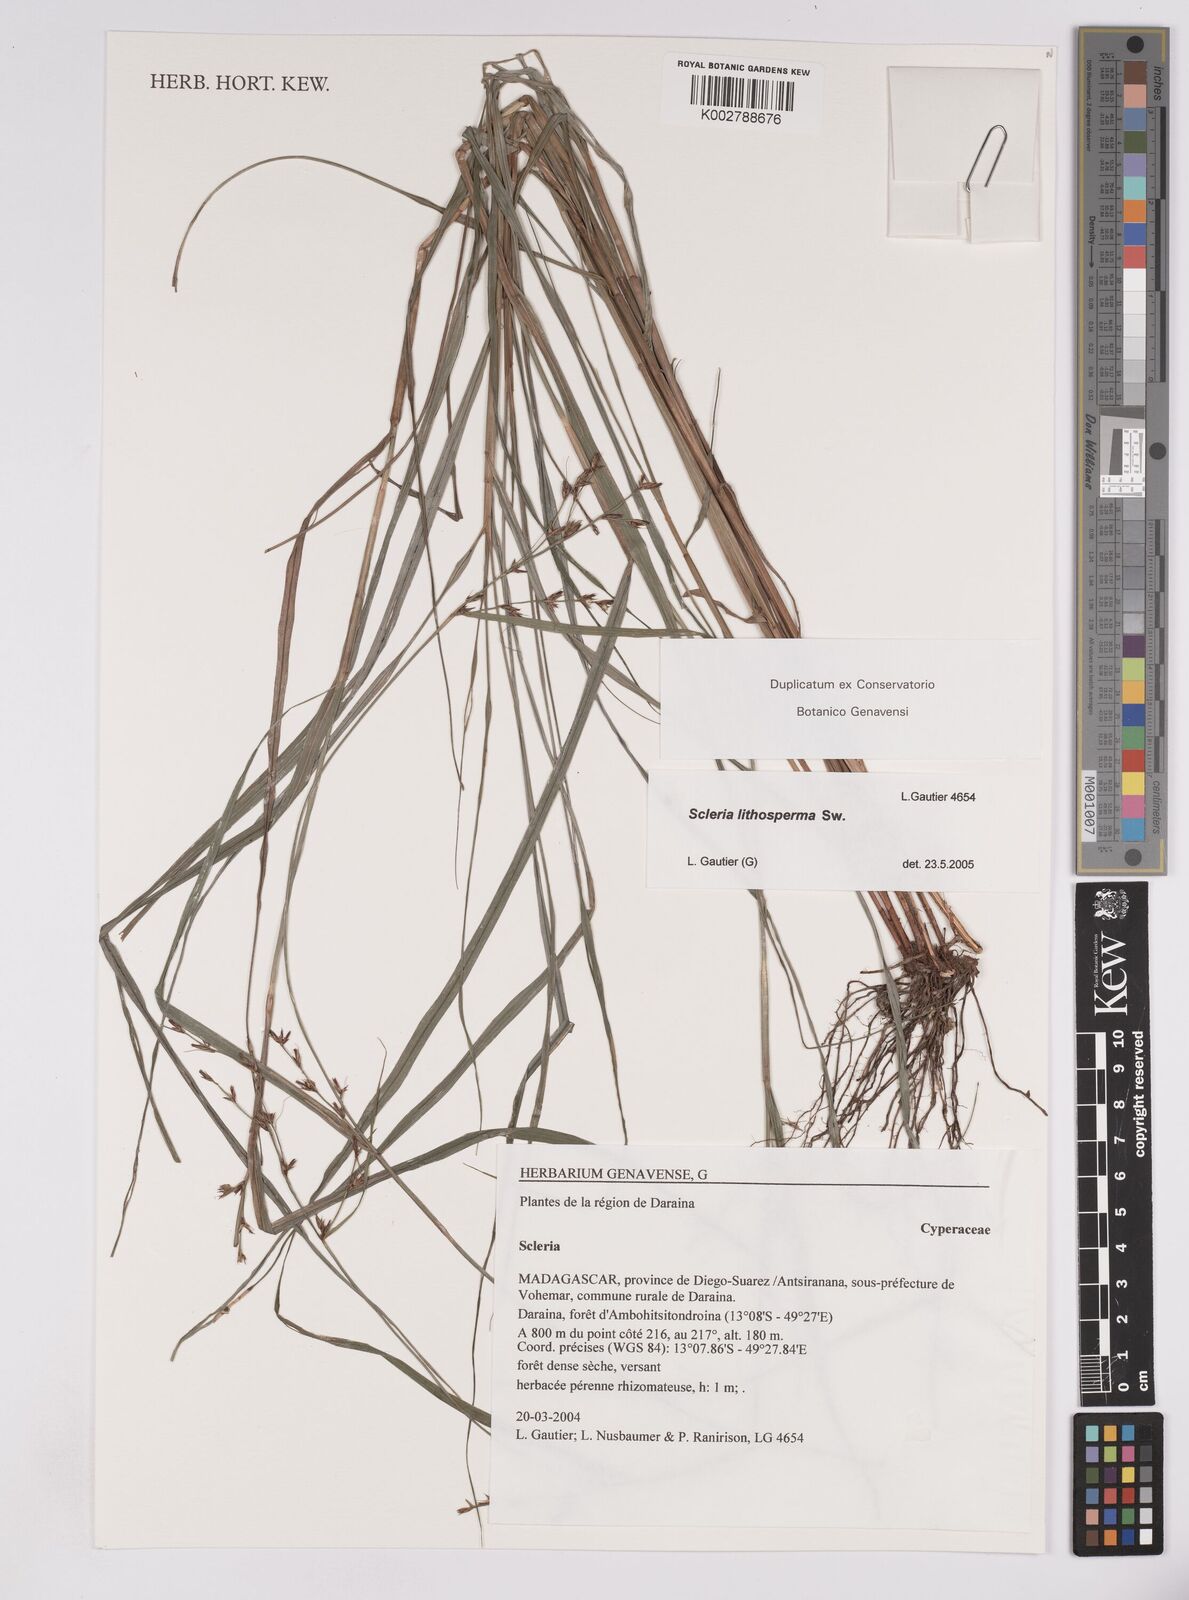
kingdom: Plantae
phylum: Tracheophyta
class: Liliopsida
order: Poales
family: Cyperaceae
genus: Scleria
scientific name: Scleria lithosperma
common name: Florida keys nut-rush
